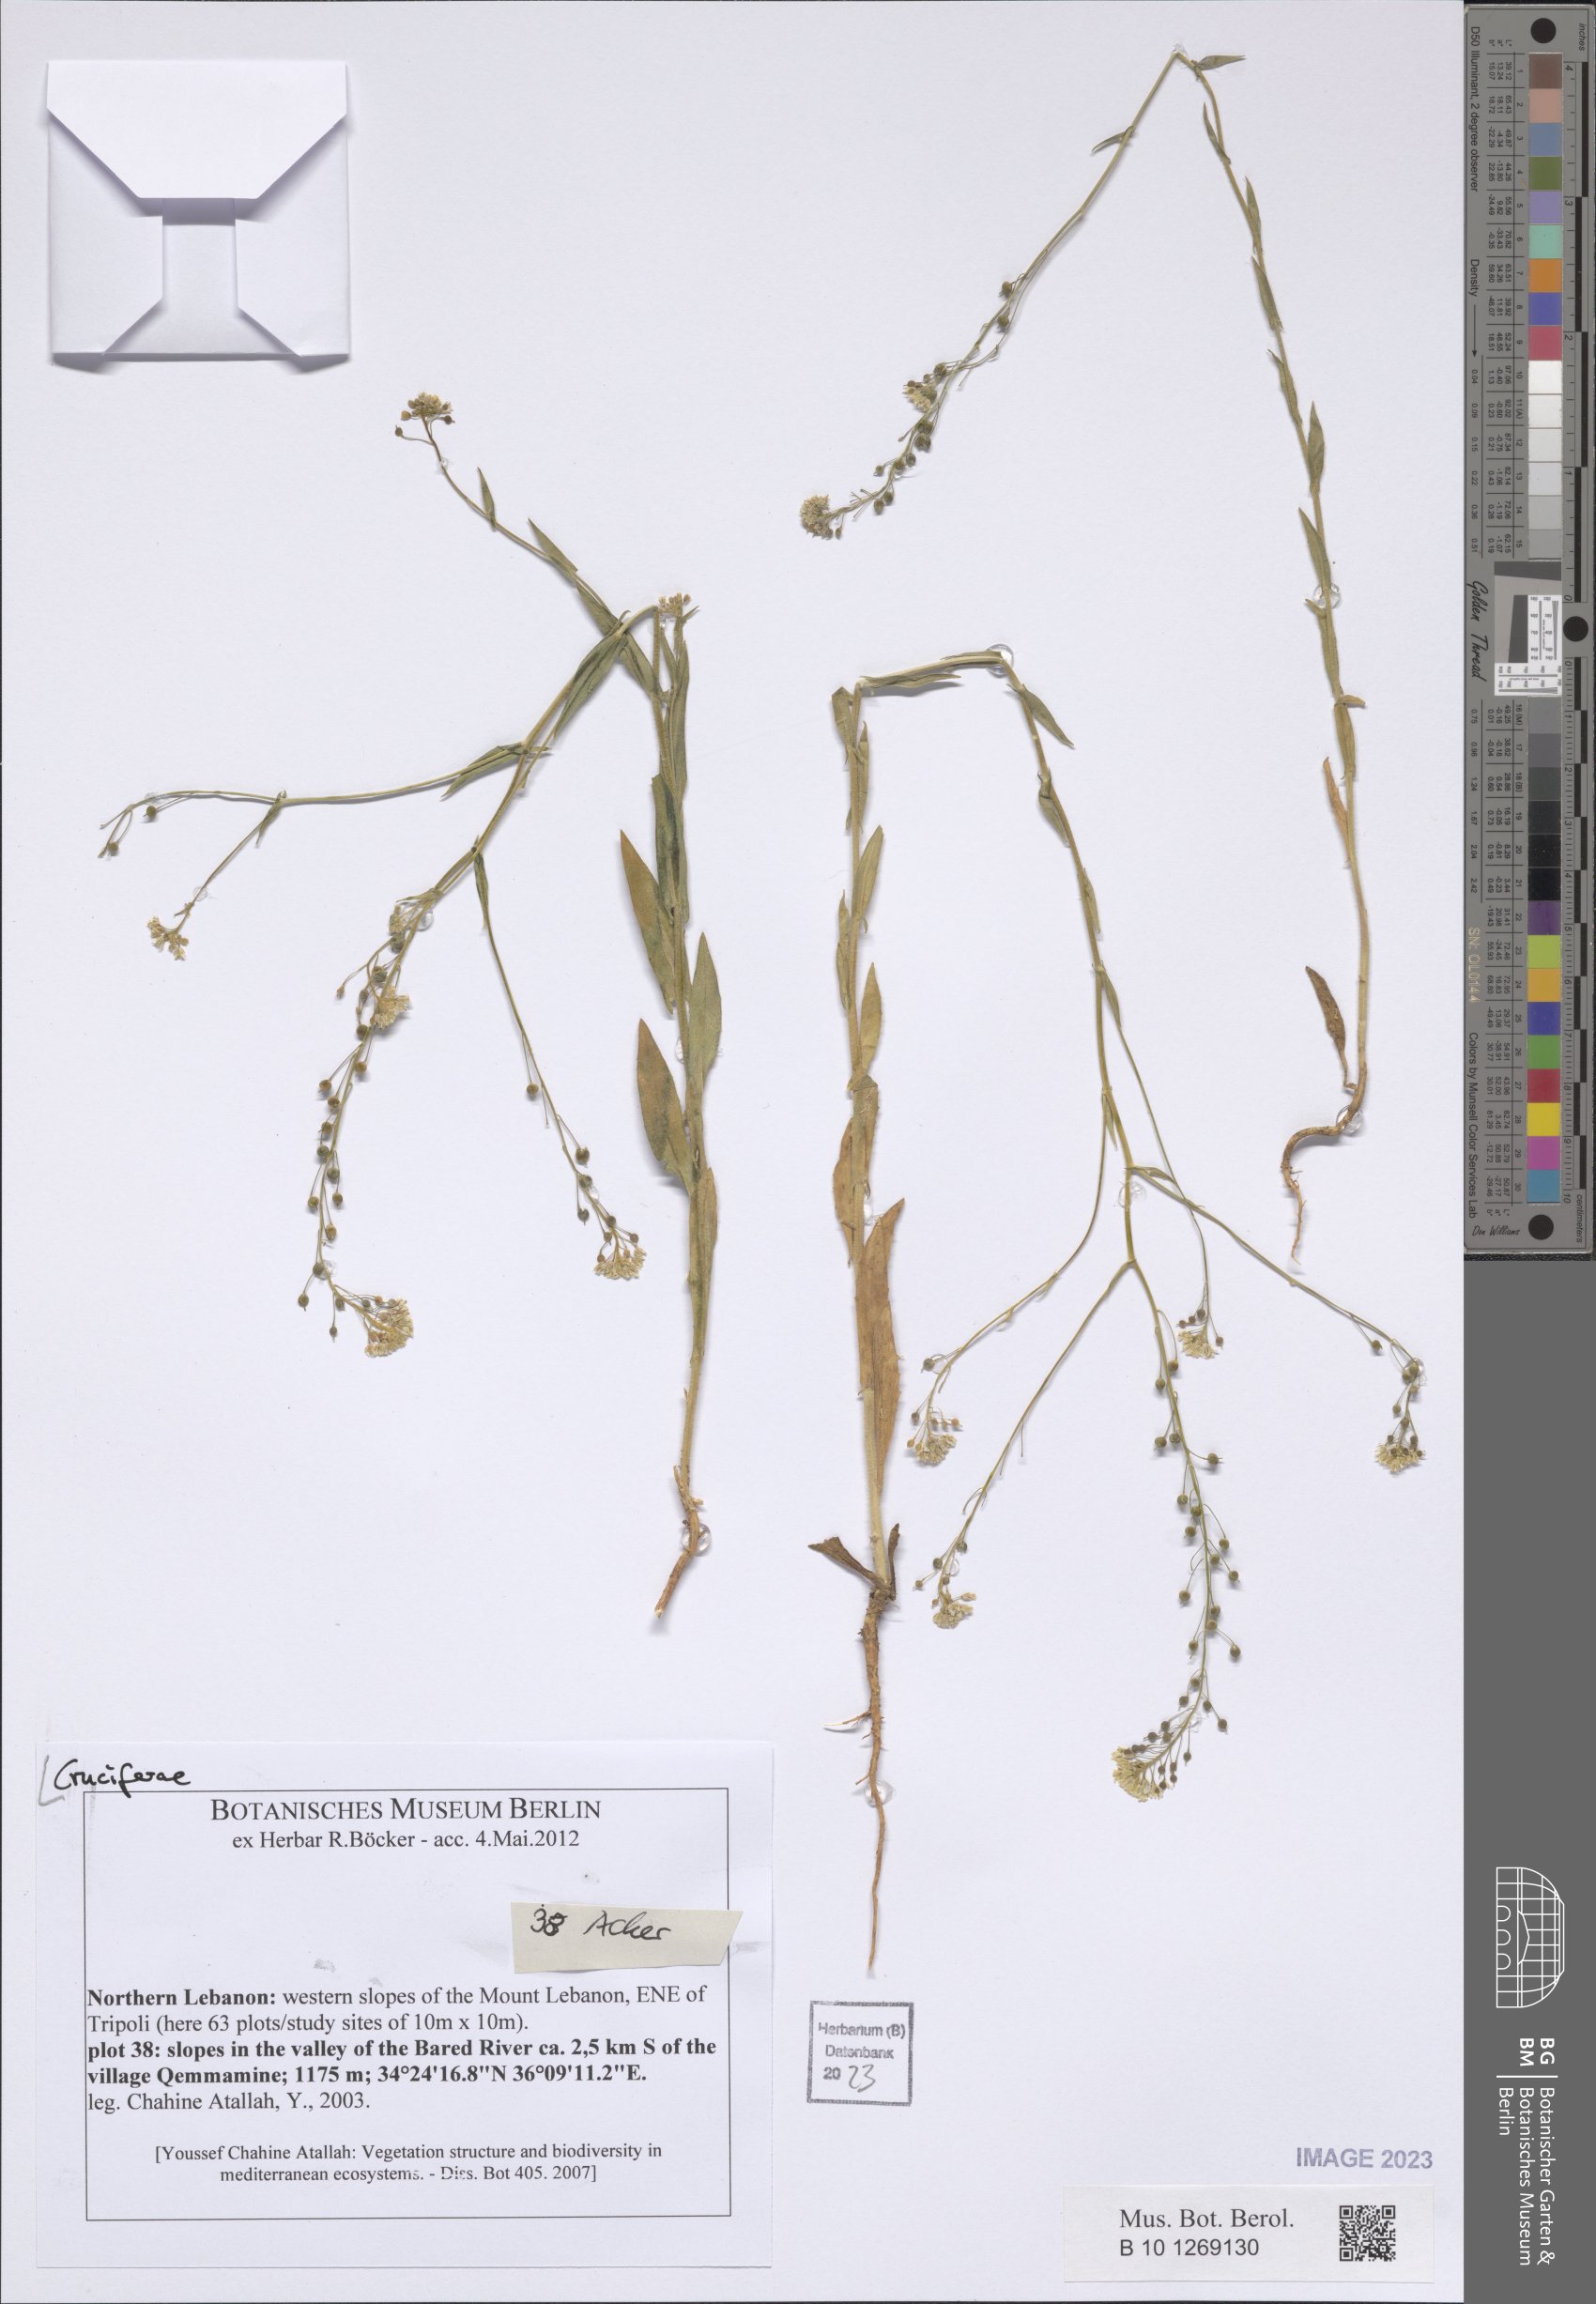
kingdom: Plantae
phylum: Tracheophyta
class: Magnoliopsida
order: Brassicales
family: Brassicaceae
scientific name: Brassicaceae
